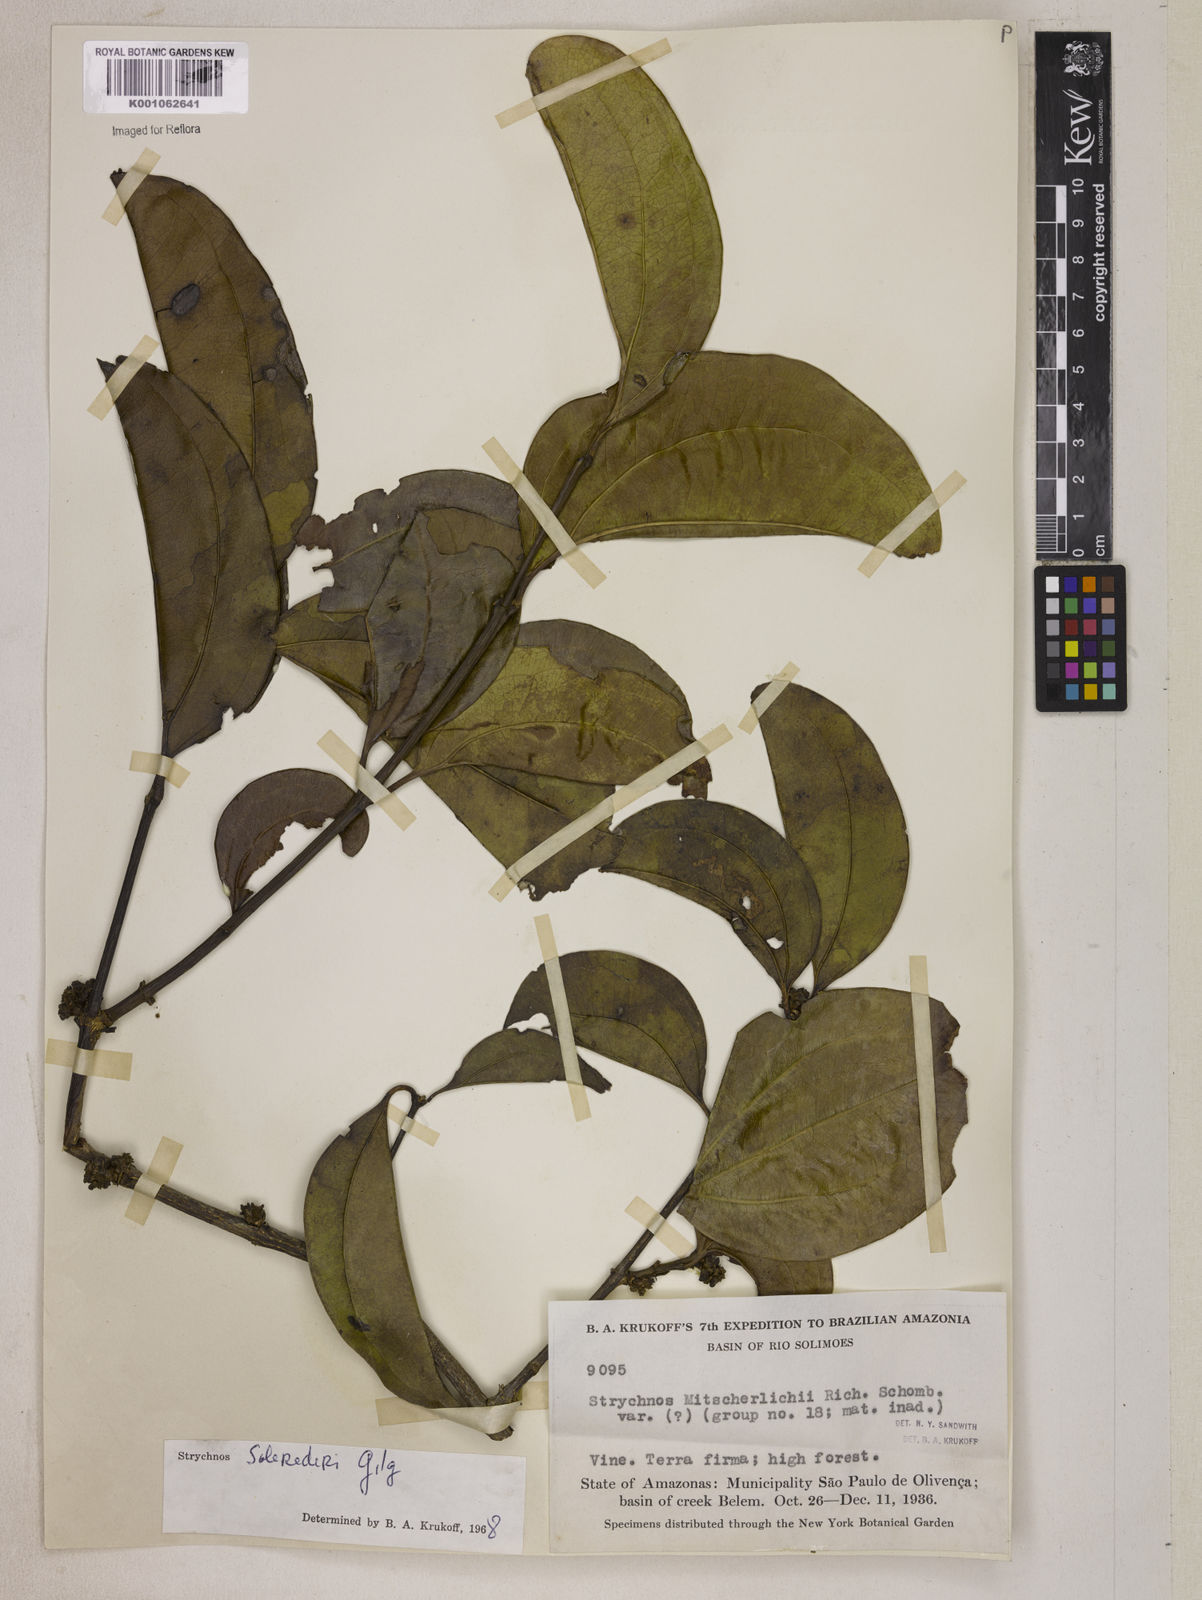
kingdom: Plantae
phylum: Tracheophyta
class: Magnoliopsida
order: Gentianales
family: Loganiaceae
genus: Strychnos
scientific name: Strychnos solerederi
